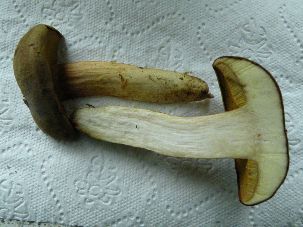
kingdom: Fungi
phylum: Basidiomycota
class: Agaricomycetes
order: Boletales
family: Boletaceae
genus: Xerocomus
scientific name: Xerocomus ferrugineus
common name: vaskeskinds-rørhat
